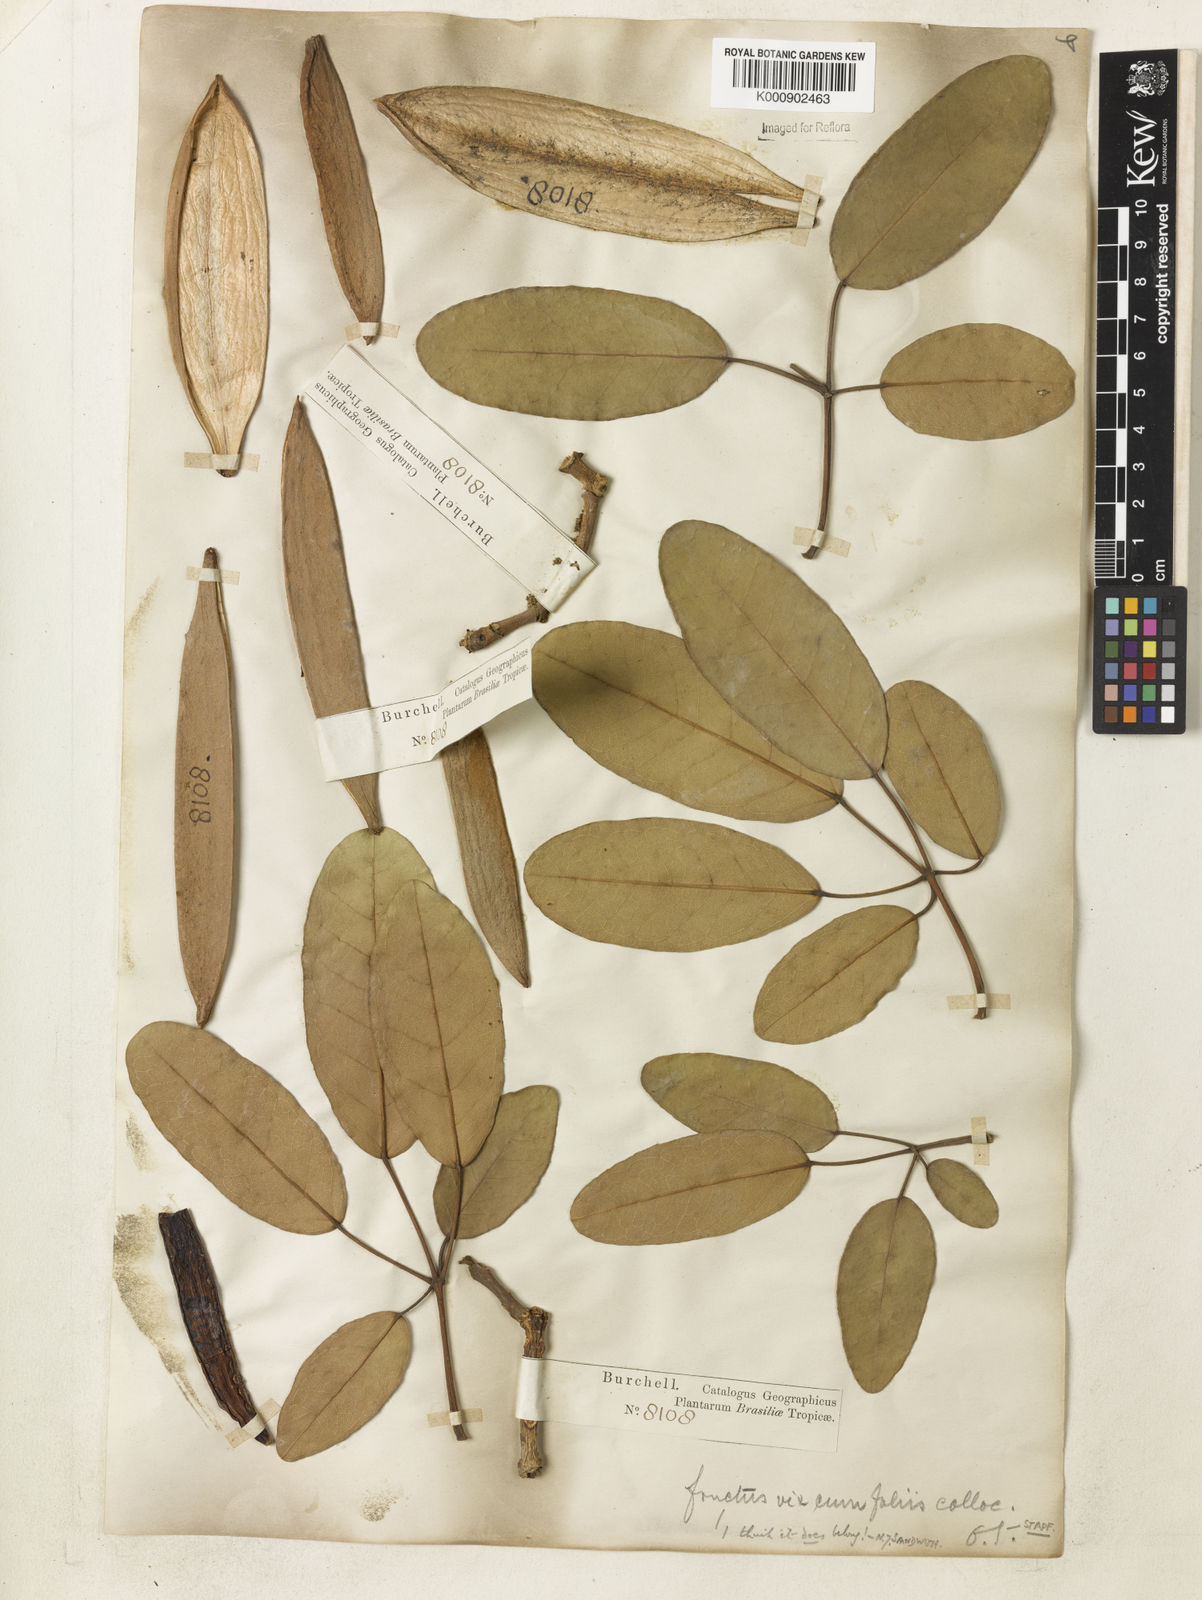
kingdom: Plantae
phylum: Tracheophyta
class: Magnoliopsida
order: Lamiales
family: Bignoniaceae
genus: Tabebuia
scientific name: Tabebuia aurea
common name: Caribbean trumpet-tree
